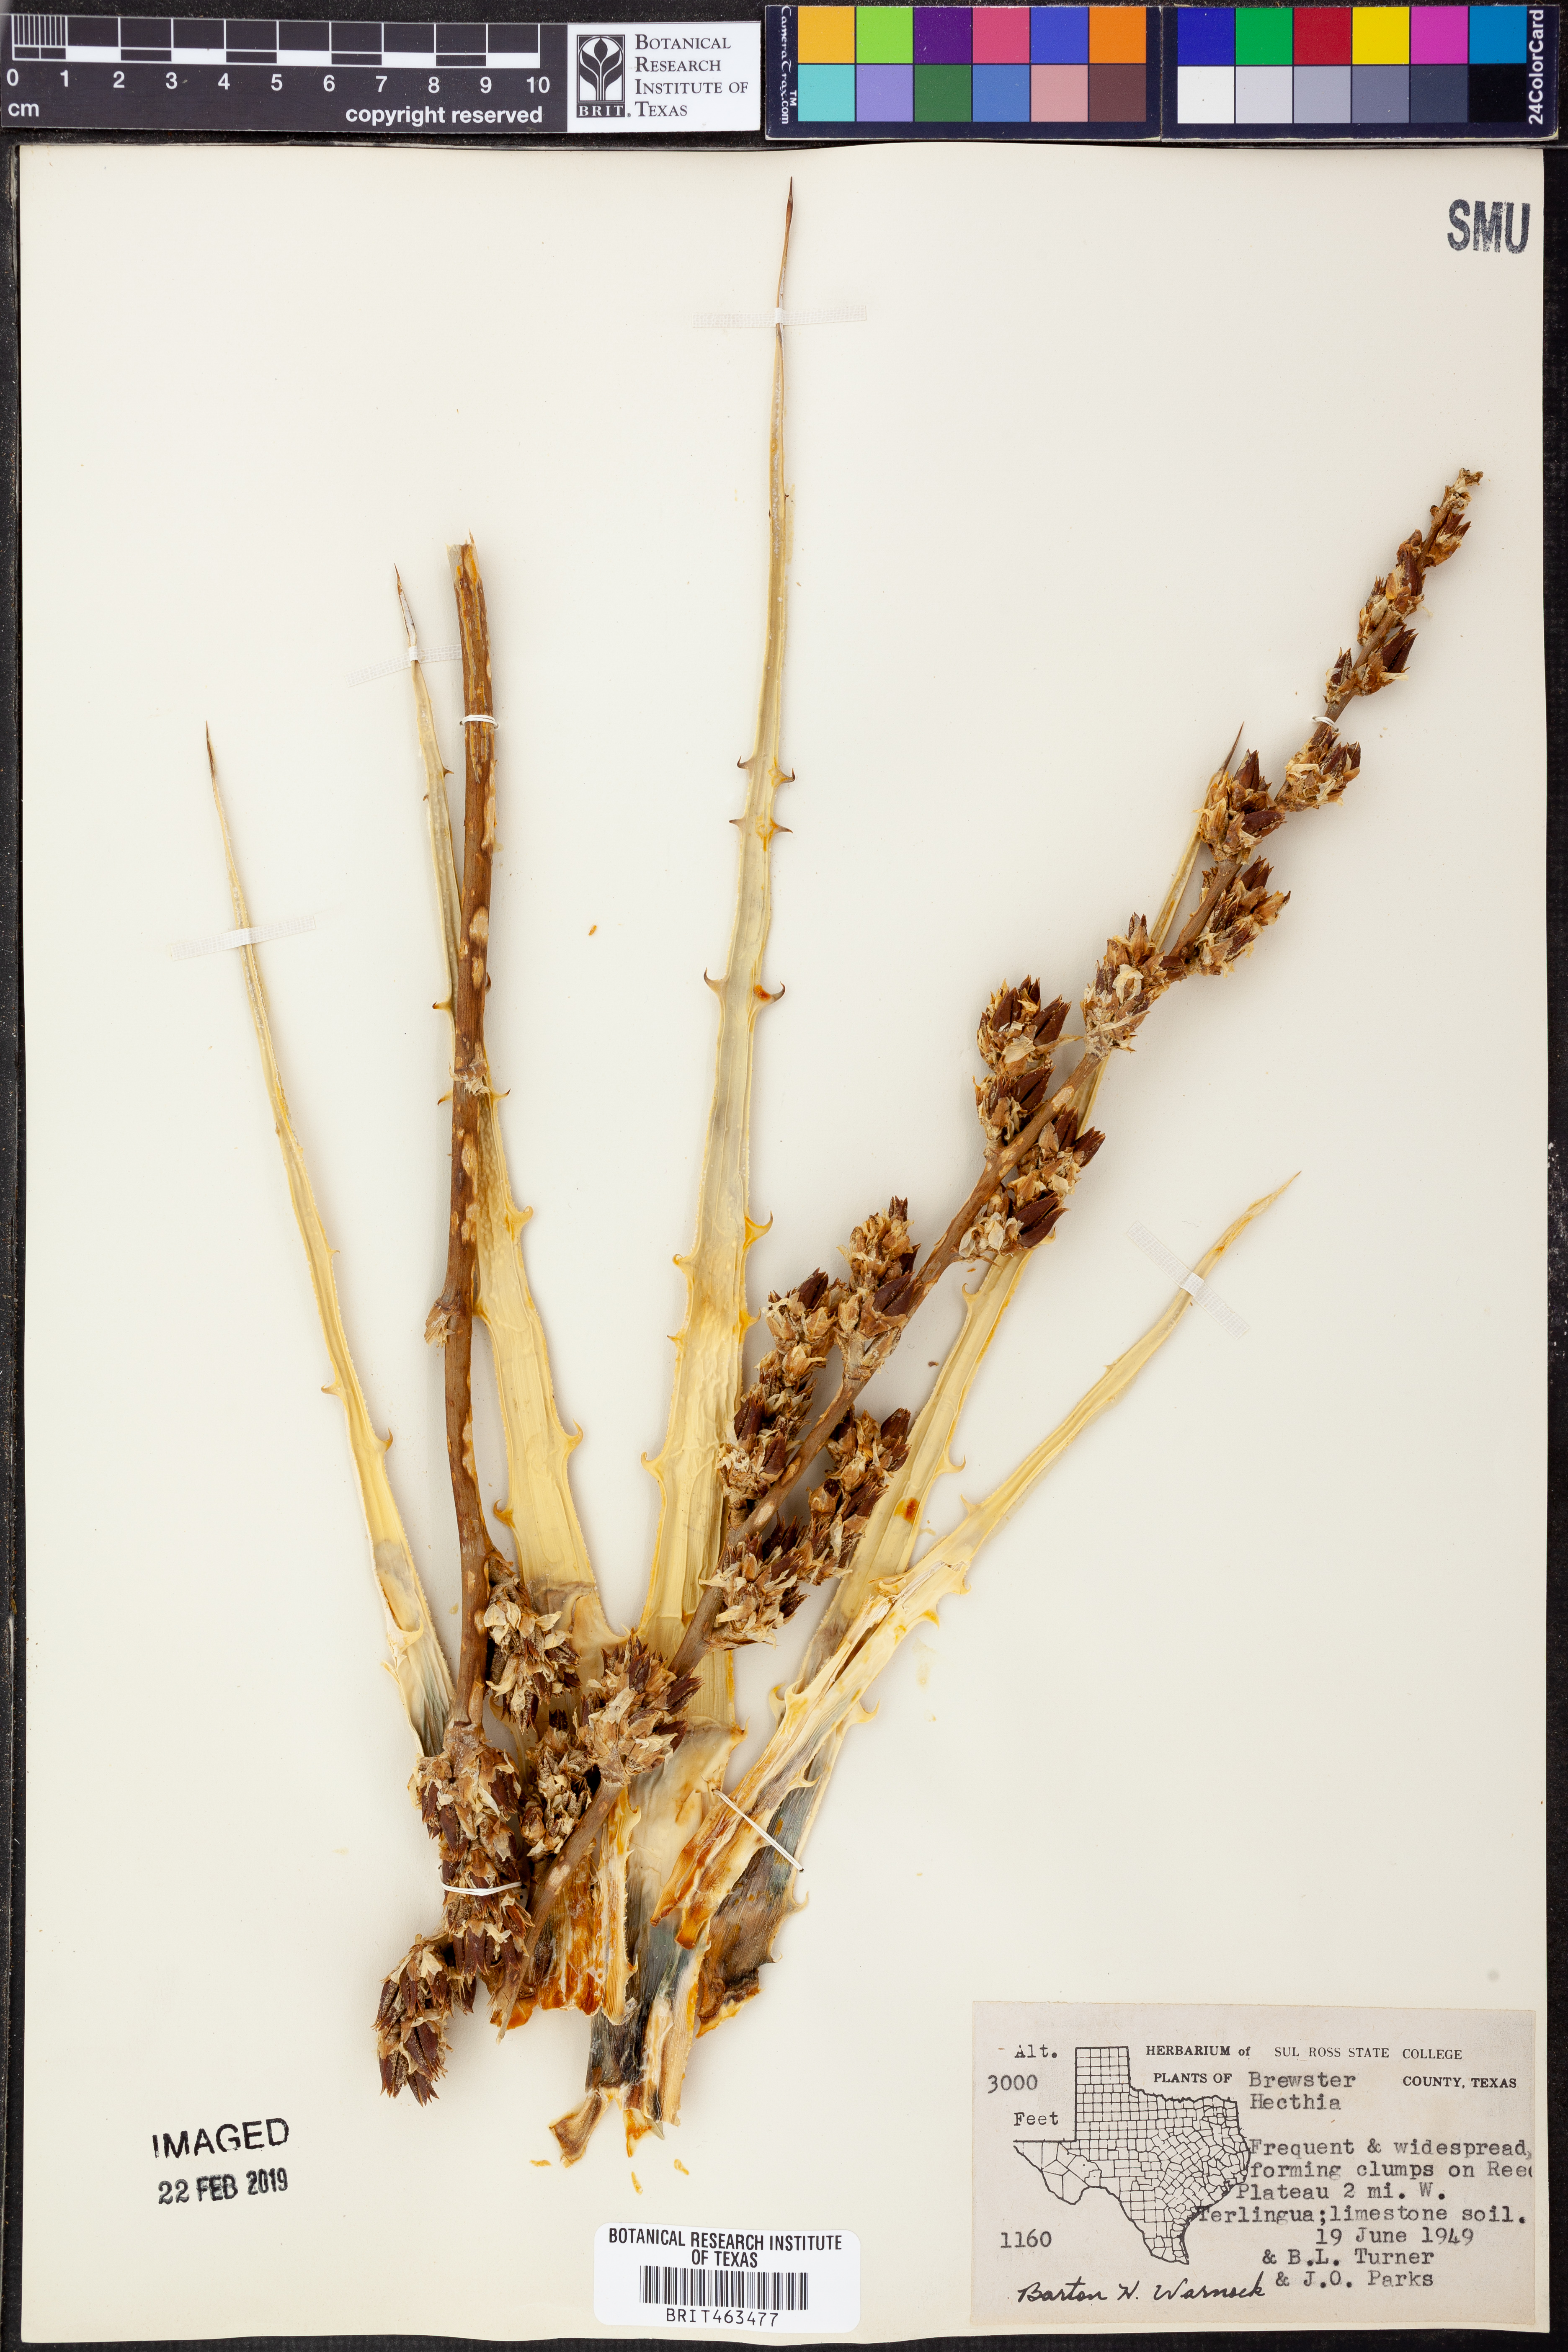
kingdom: Plantae
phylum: Tracheophyta
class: Liliopsida
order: Poales
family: Bromeliaceae
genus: Hechtia
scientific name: Hechtia
